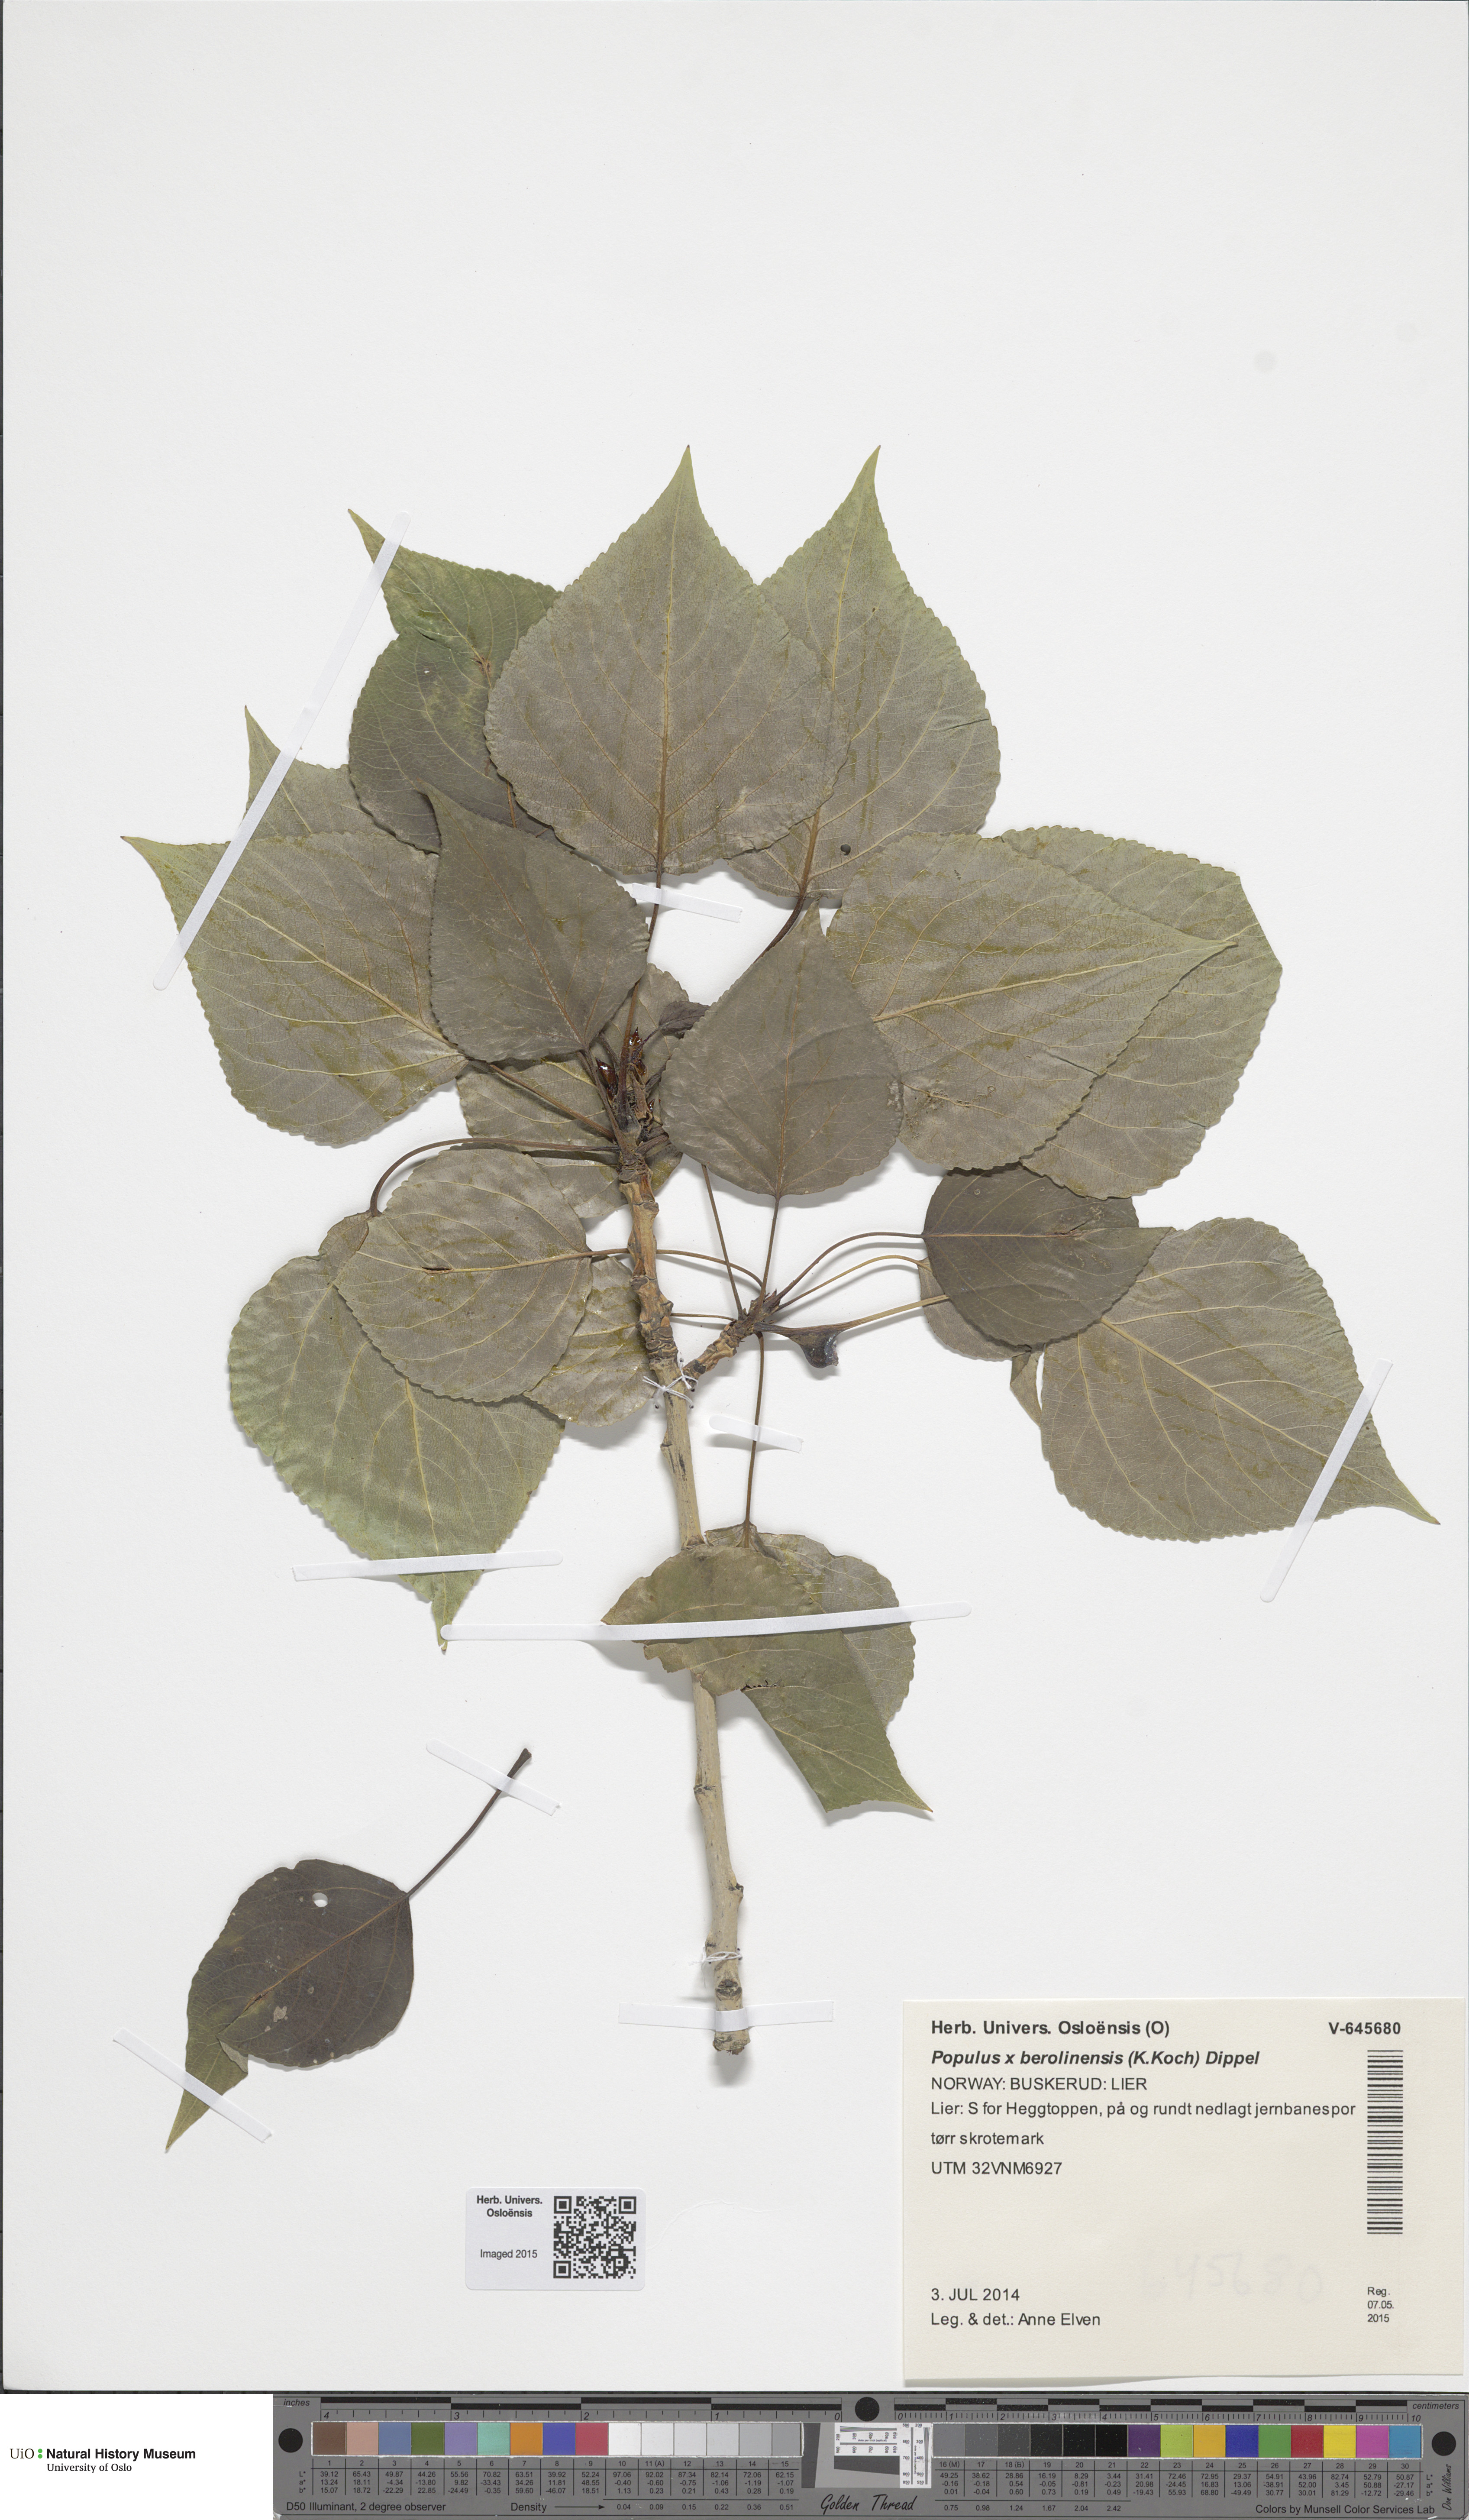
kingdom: Plantae
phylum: Tracheophyta
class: Magnoliopsida
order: Malpighiales
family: Salicaceae
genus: Populus
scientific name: Populus berolinensis
